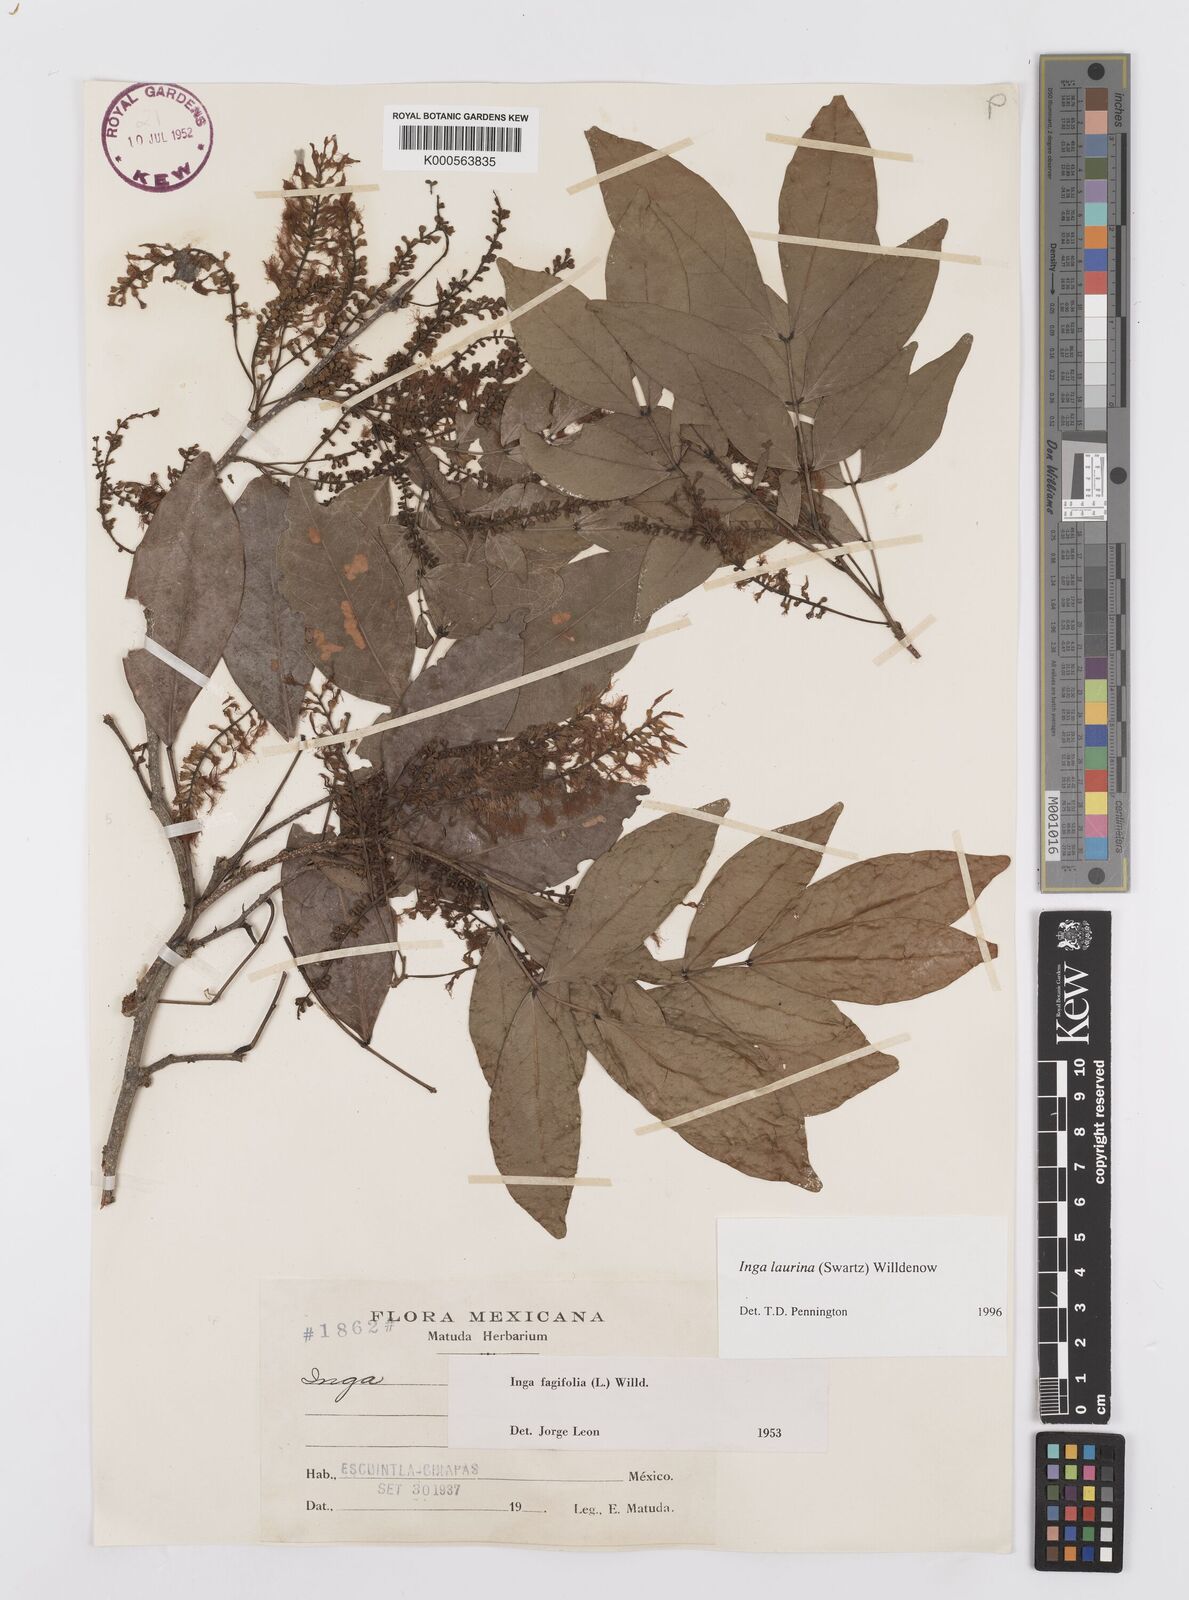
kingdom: Plantae
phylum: Tracheophyta
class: Magnoliopsida
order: Fabales
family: Fabaceae
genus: Inga
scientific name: Inga laurina
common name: Red wood
